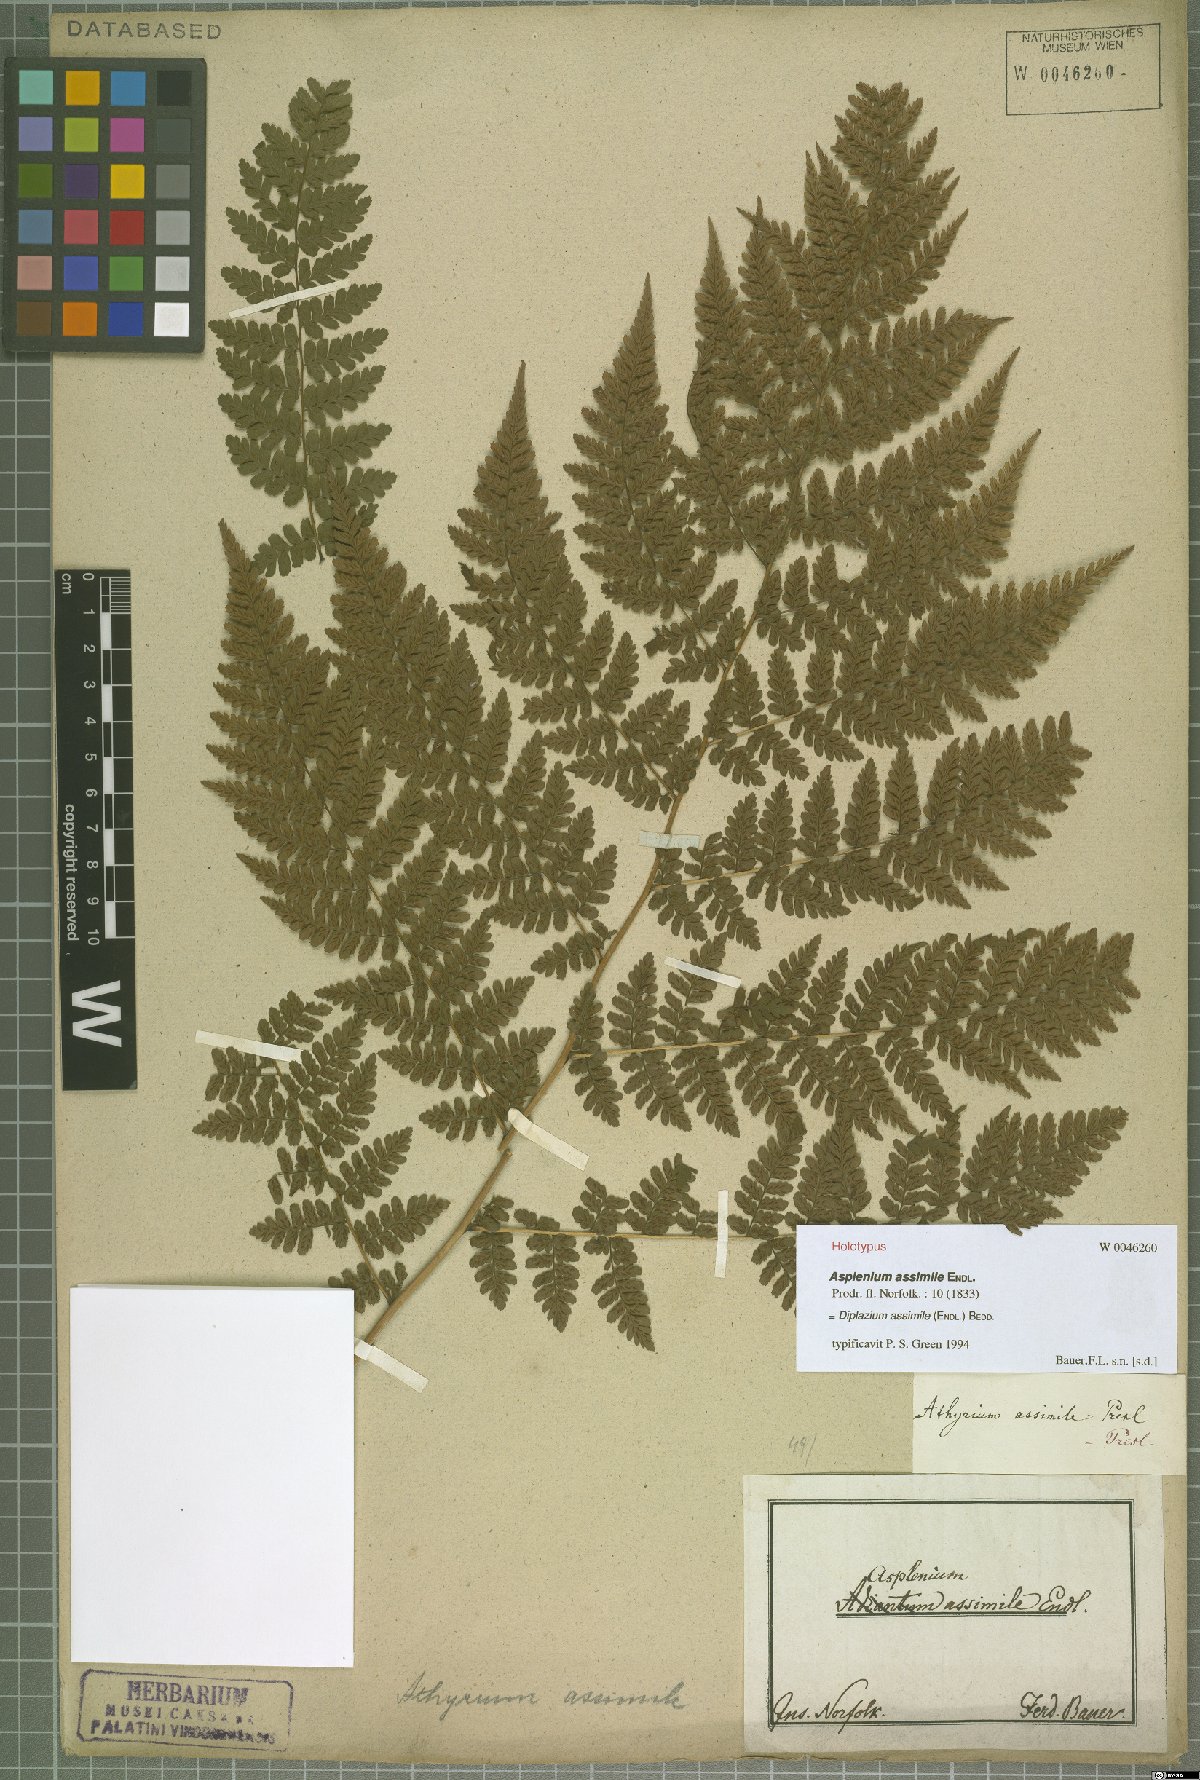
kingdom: Plantae
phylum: Tracheophyta
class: Polypodiopsida
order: Polypodiales
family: Athyriaceae
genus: Diplazium
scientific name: Diplazium assimile
